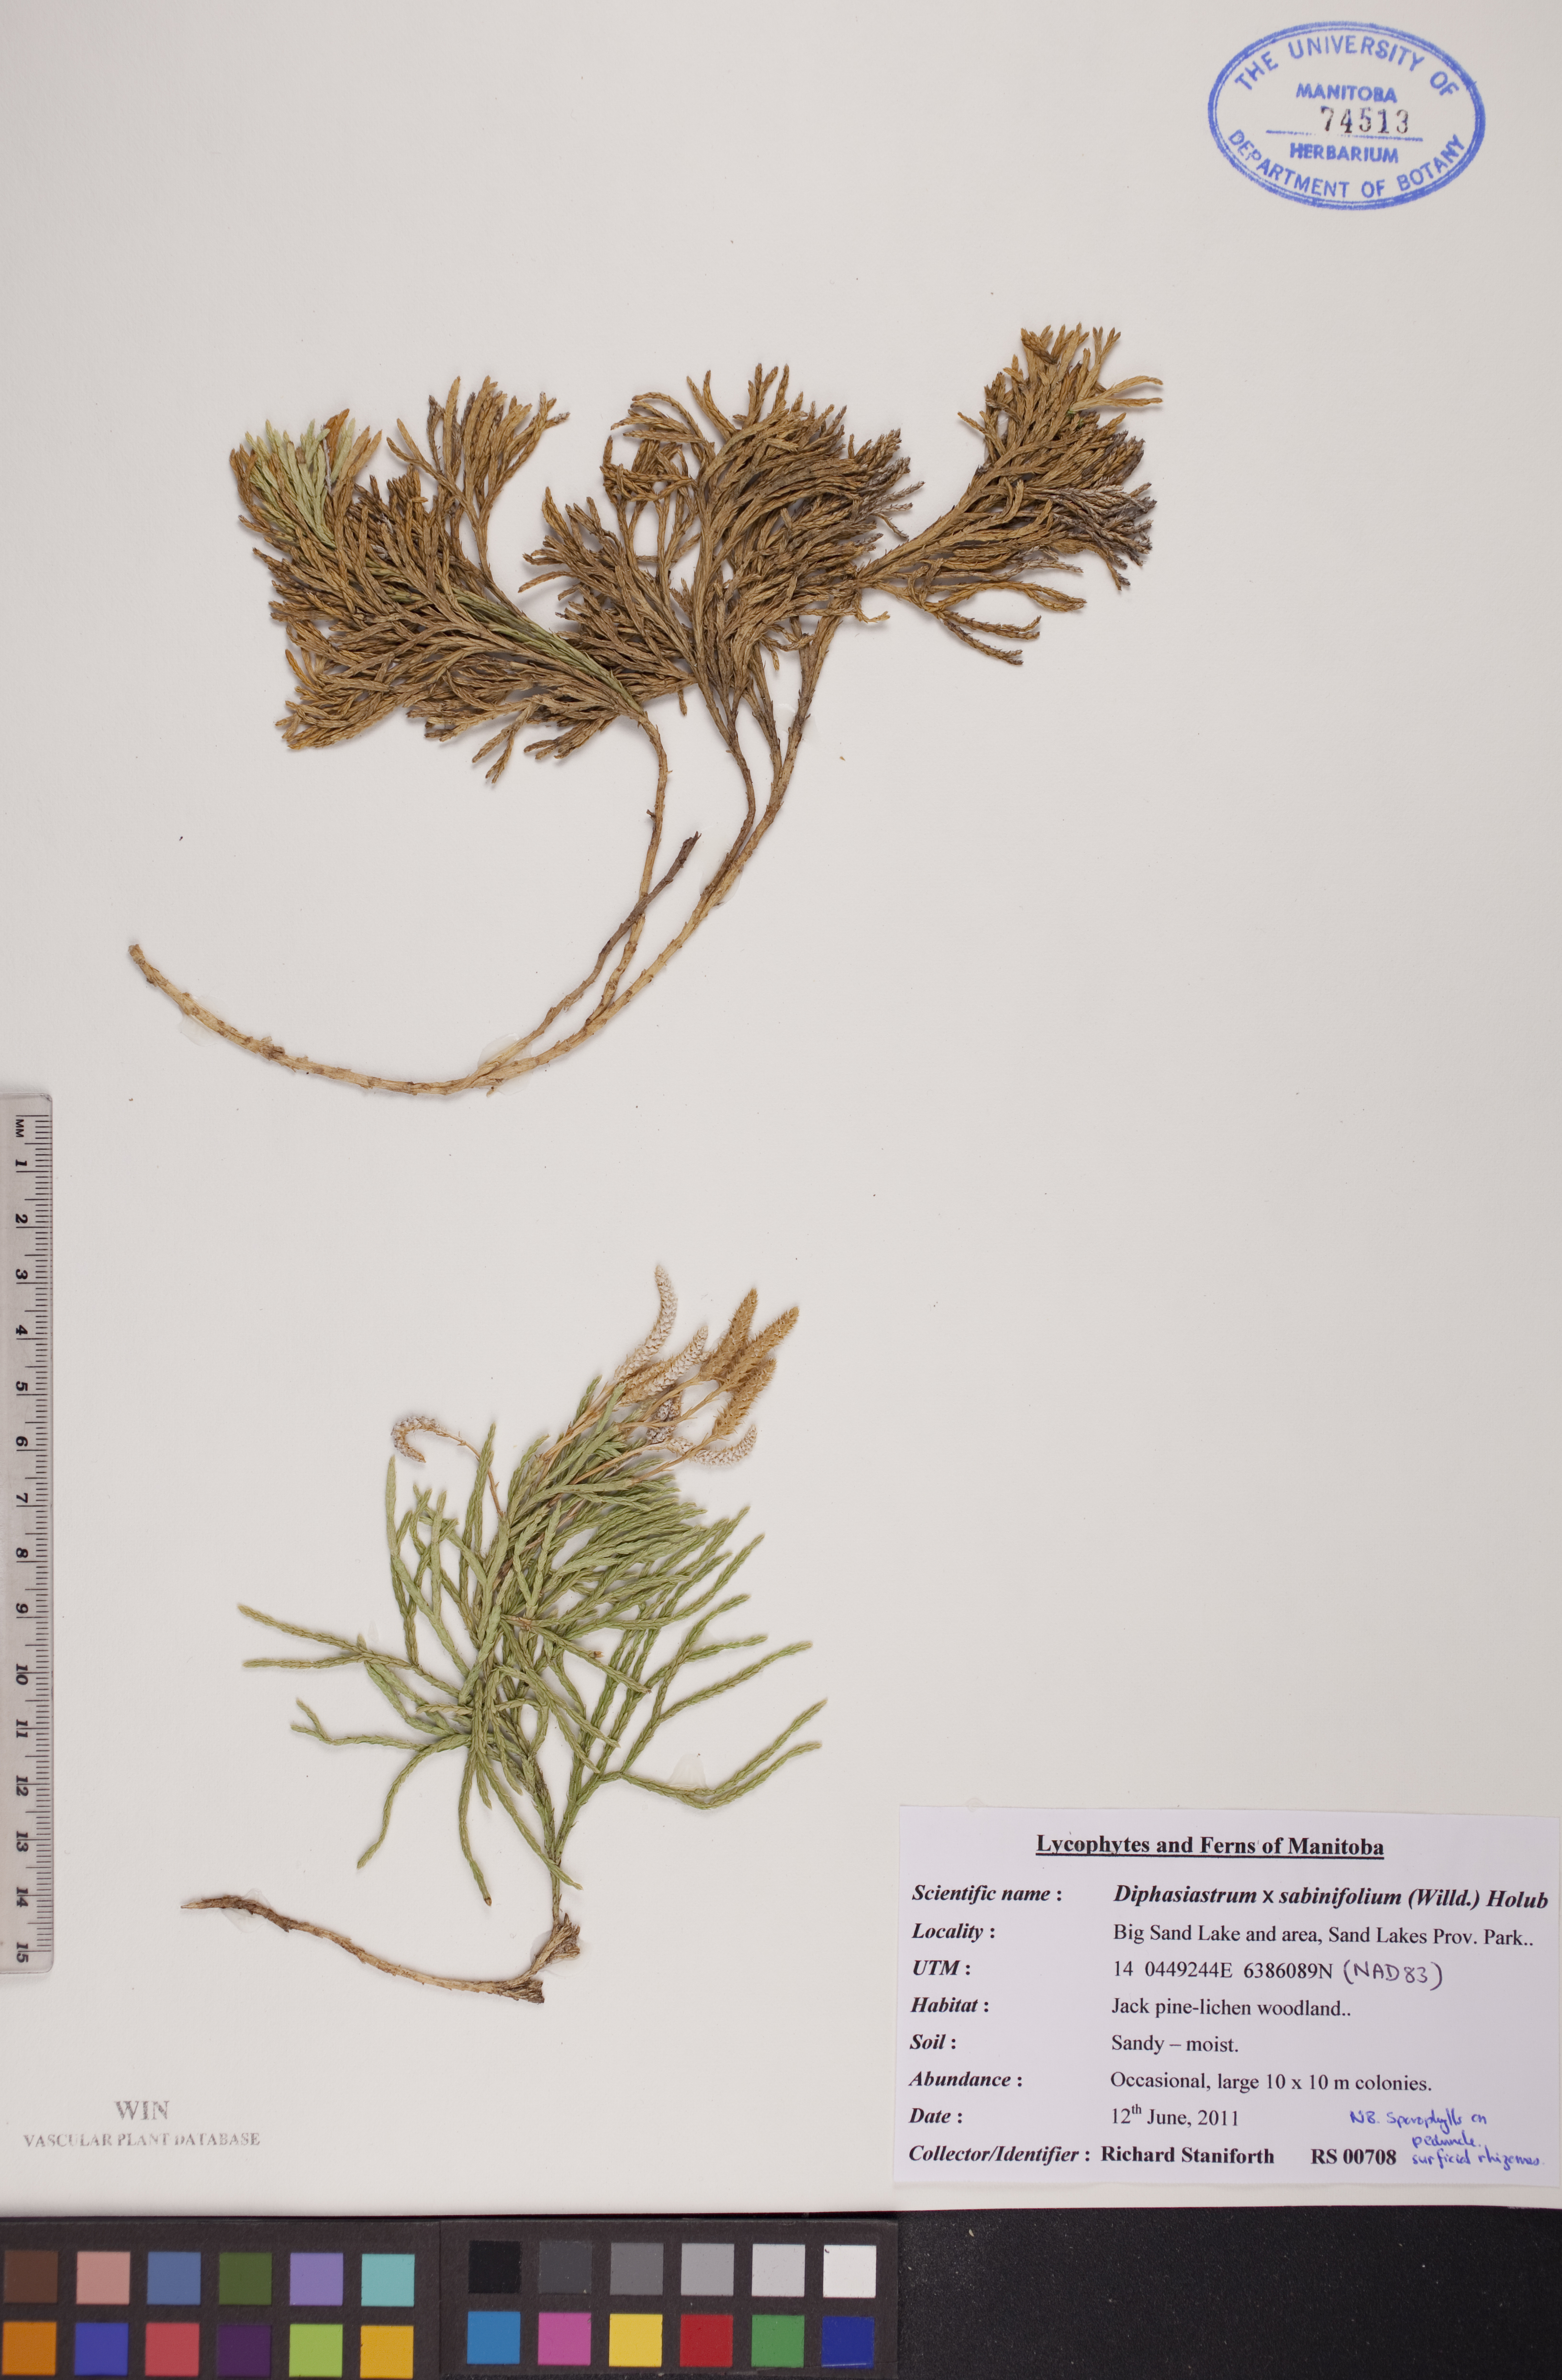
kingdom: Plantae
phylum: Tracheophyta
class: Lycopodiopsida
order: Lycopodiales
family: Lycopodiaceae
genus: Diphasiastrum
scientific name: Diphasiastrum sabinifolium
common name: Juniper clubmoss
